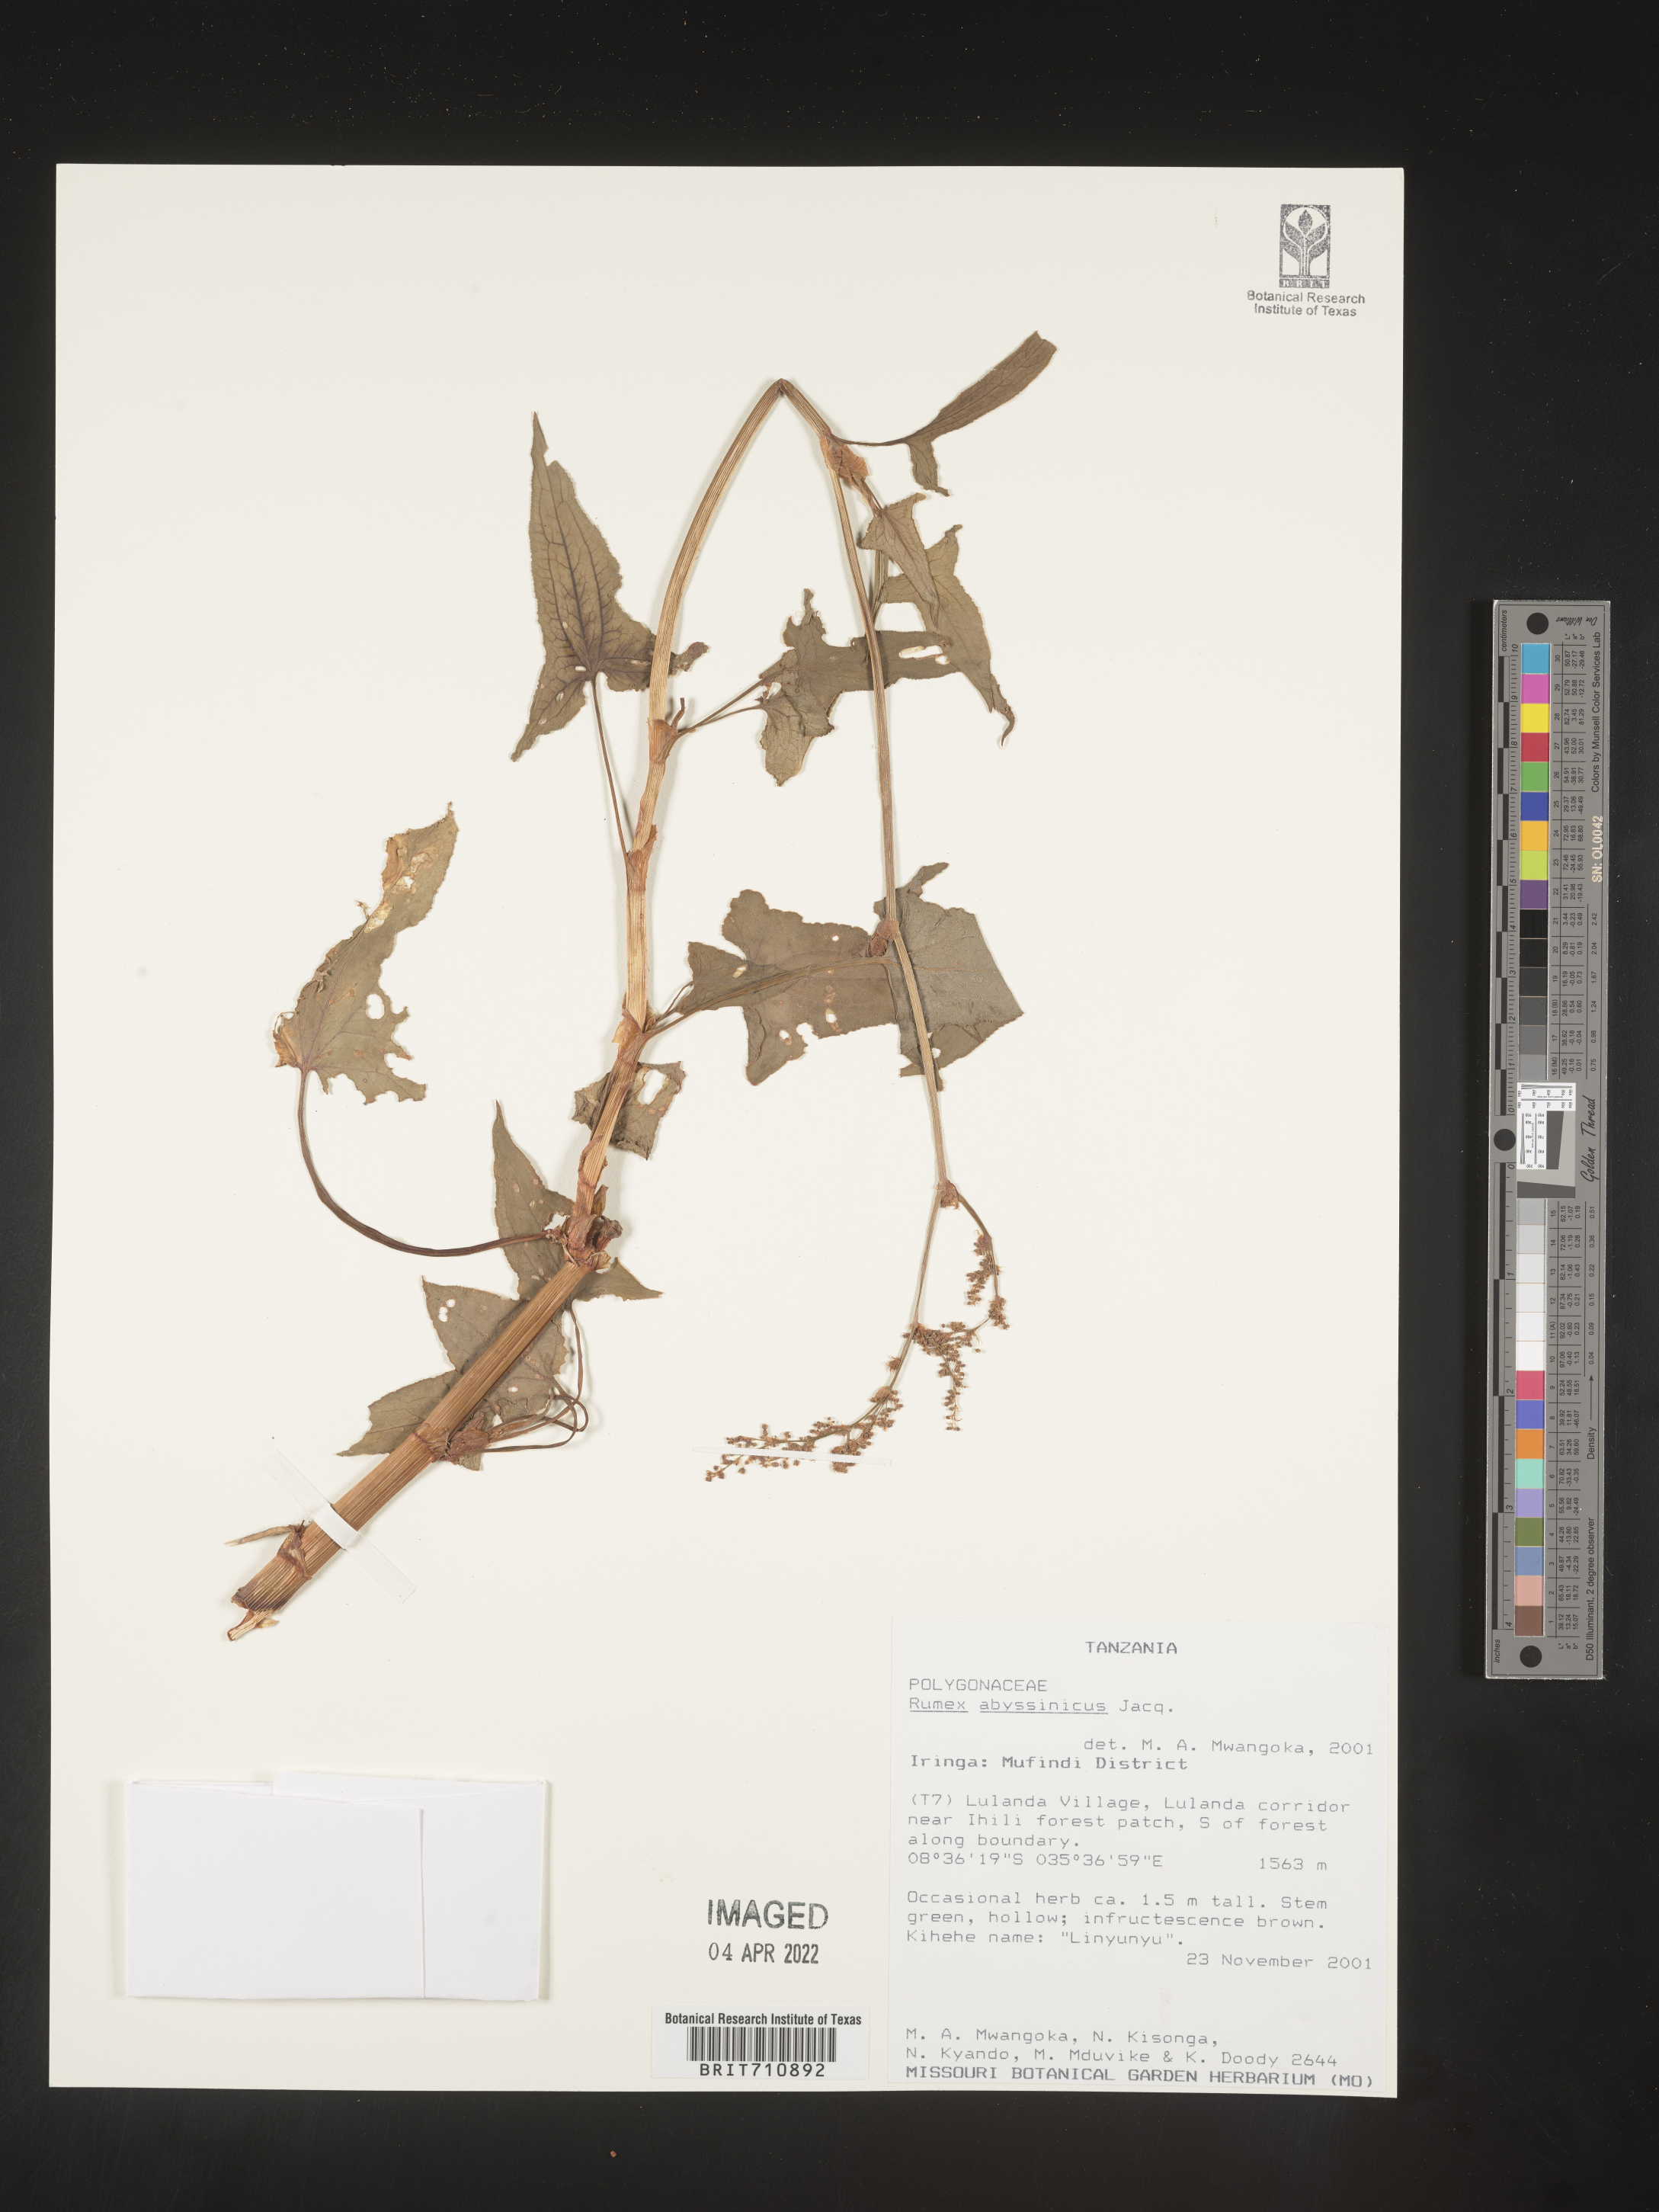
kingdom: Plantae
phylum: Tracheophyta
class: Magnoliopsida
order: Caryophyllales
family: Polygonaceae
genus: Rumex
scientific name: Rumex
